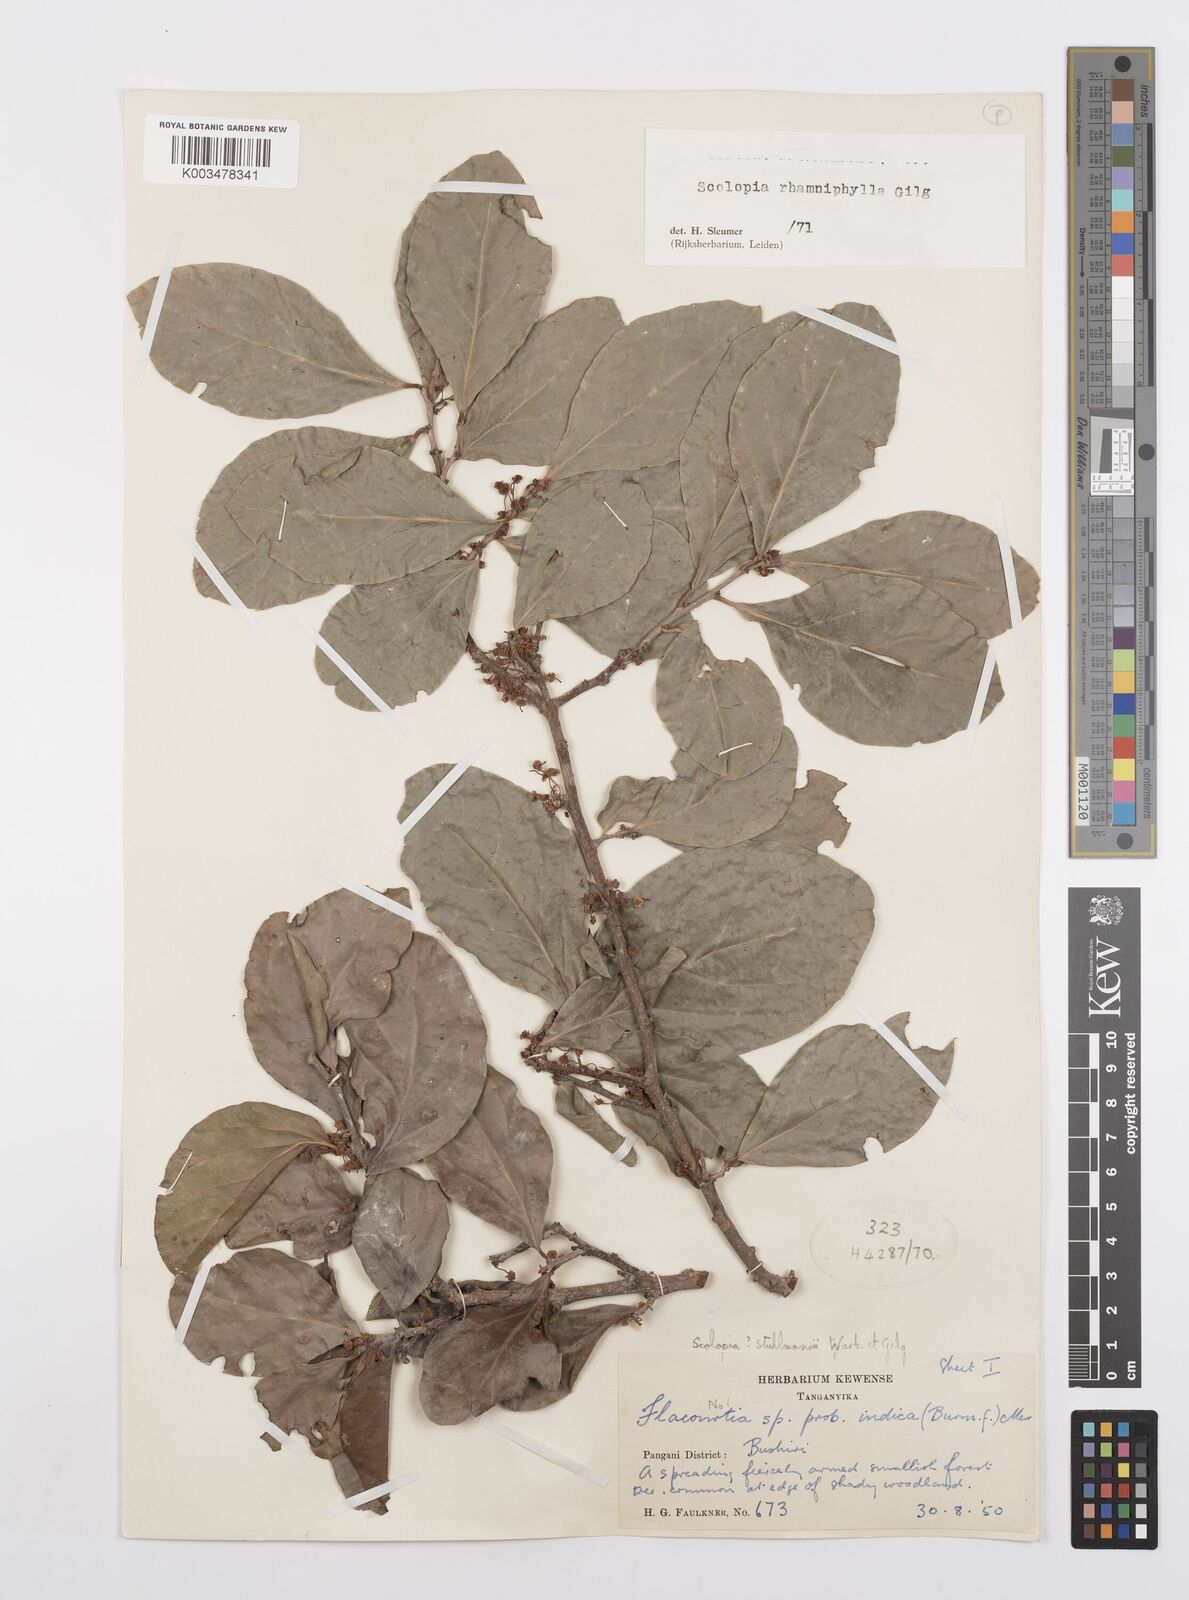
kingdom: Plantae
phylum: Tracheophyta
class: Magnoliopsida
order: Malpighiales
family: Salicaceae
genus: Scolopia
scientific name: Scolopia rhamniphylla
